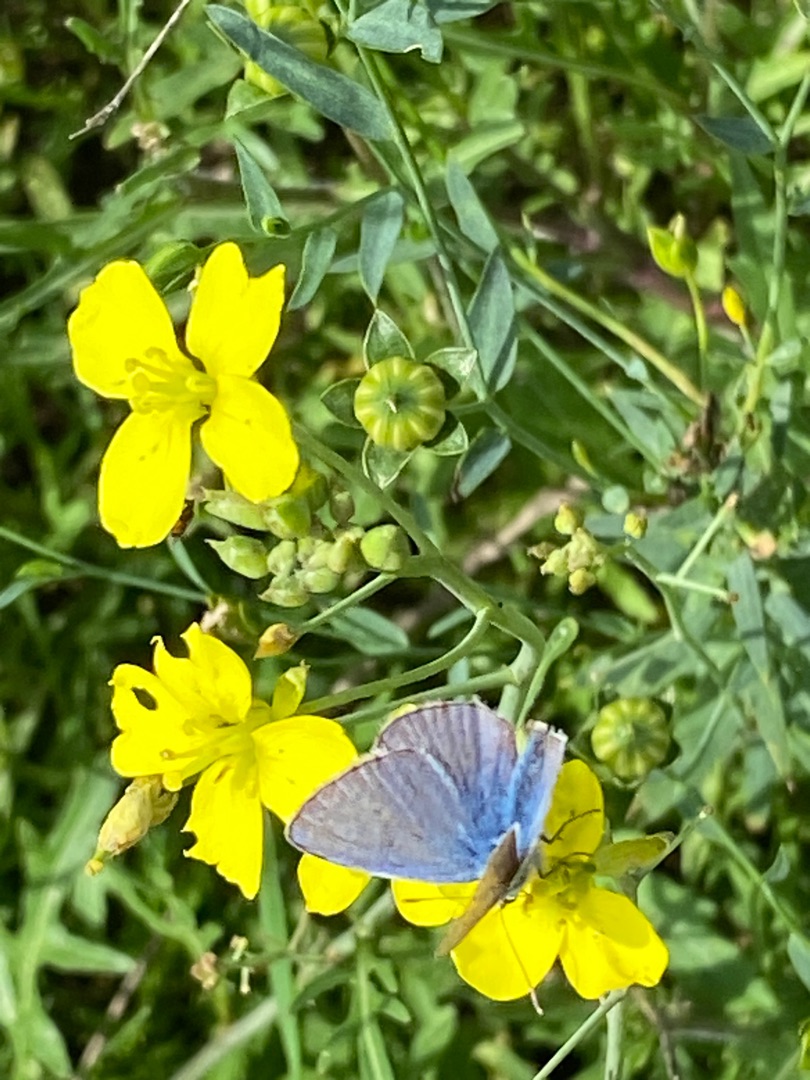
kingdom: Animalia
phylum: Arthropoda
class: Insecta
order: Lepidoptera
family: Lycaenidae
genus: Polyommatus
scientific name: Polyommatus icarus
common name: Almindelig blåfugl
